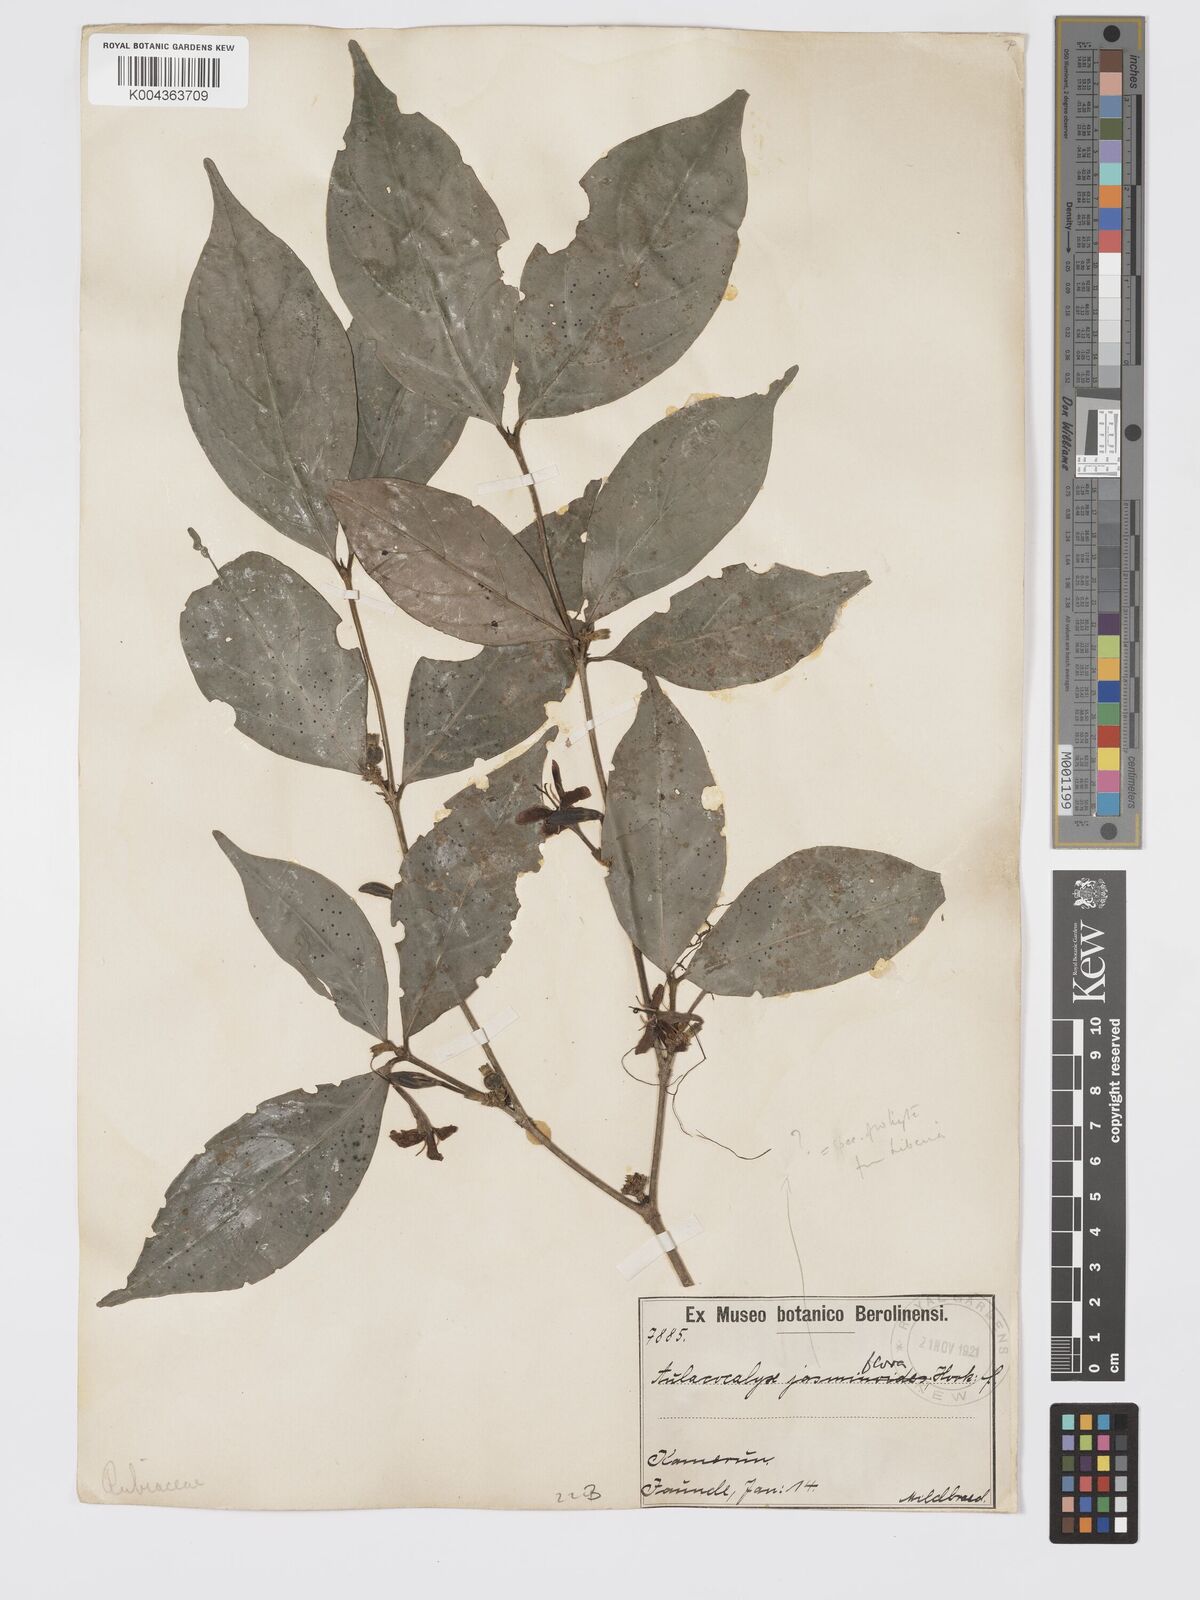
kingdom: Plantae
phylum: Tracheophyta
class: Magnoliopsida
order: Gentianales
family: Rubiaceae
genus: Aulacocalyx
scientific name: Aulacocalyx jasminiflora
